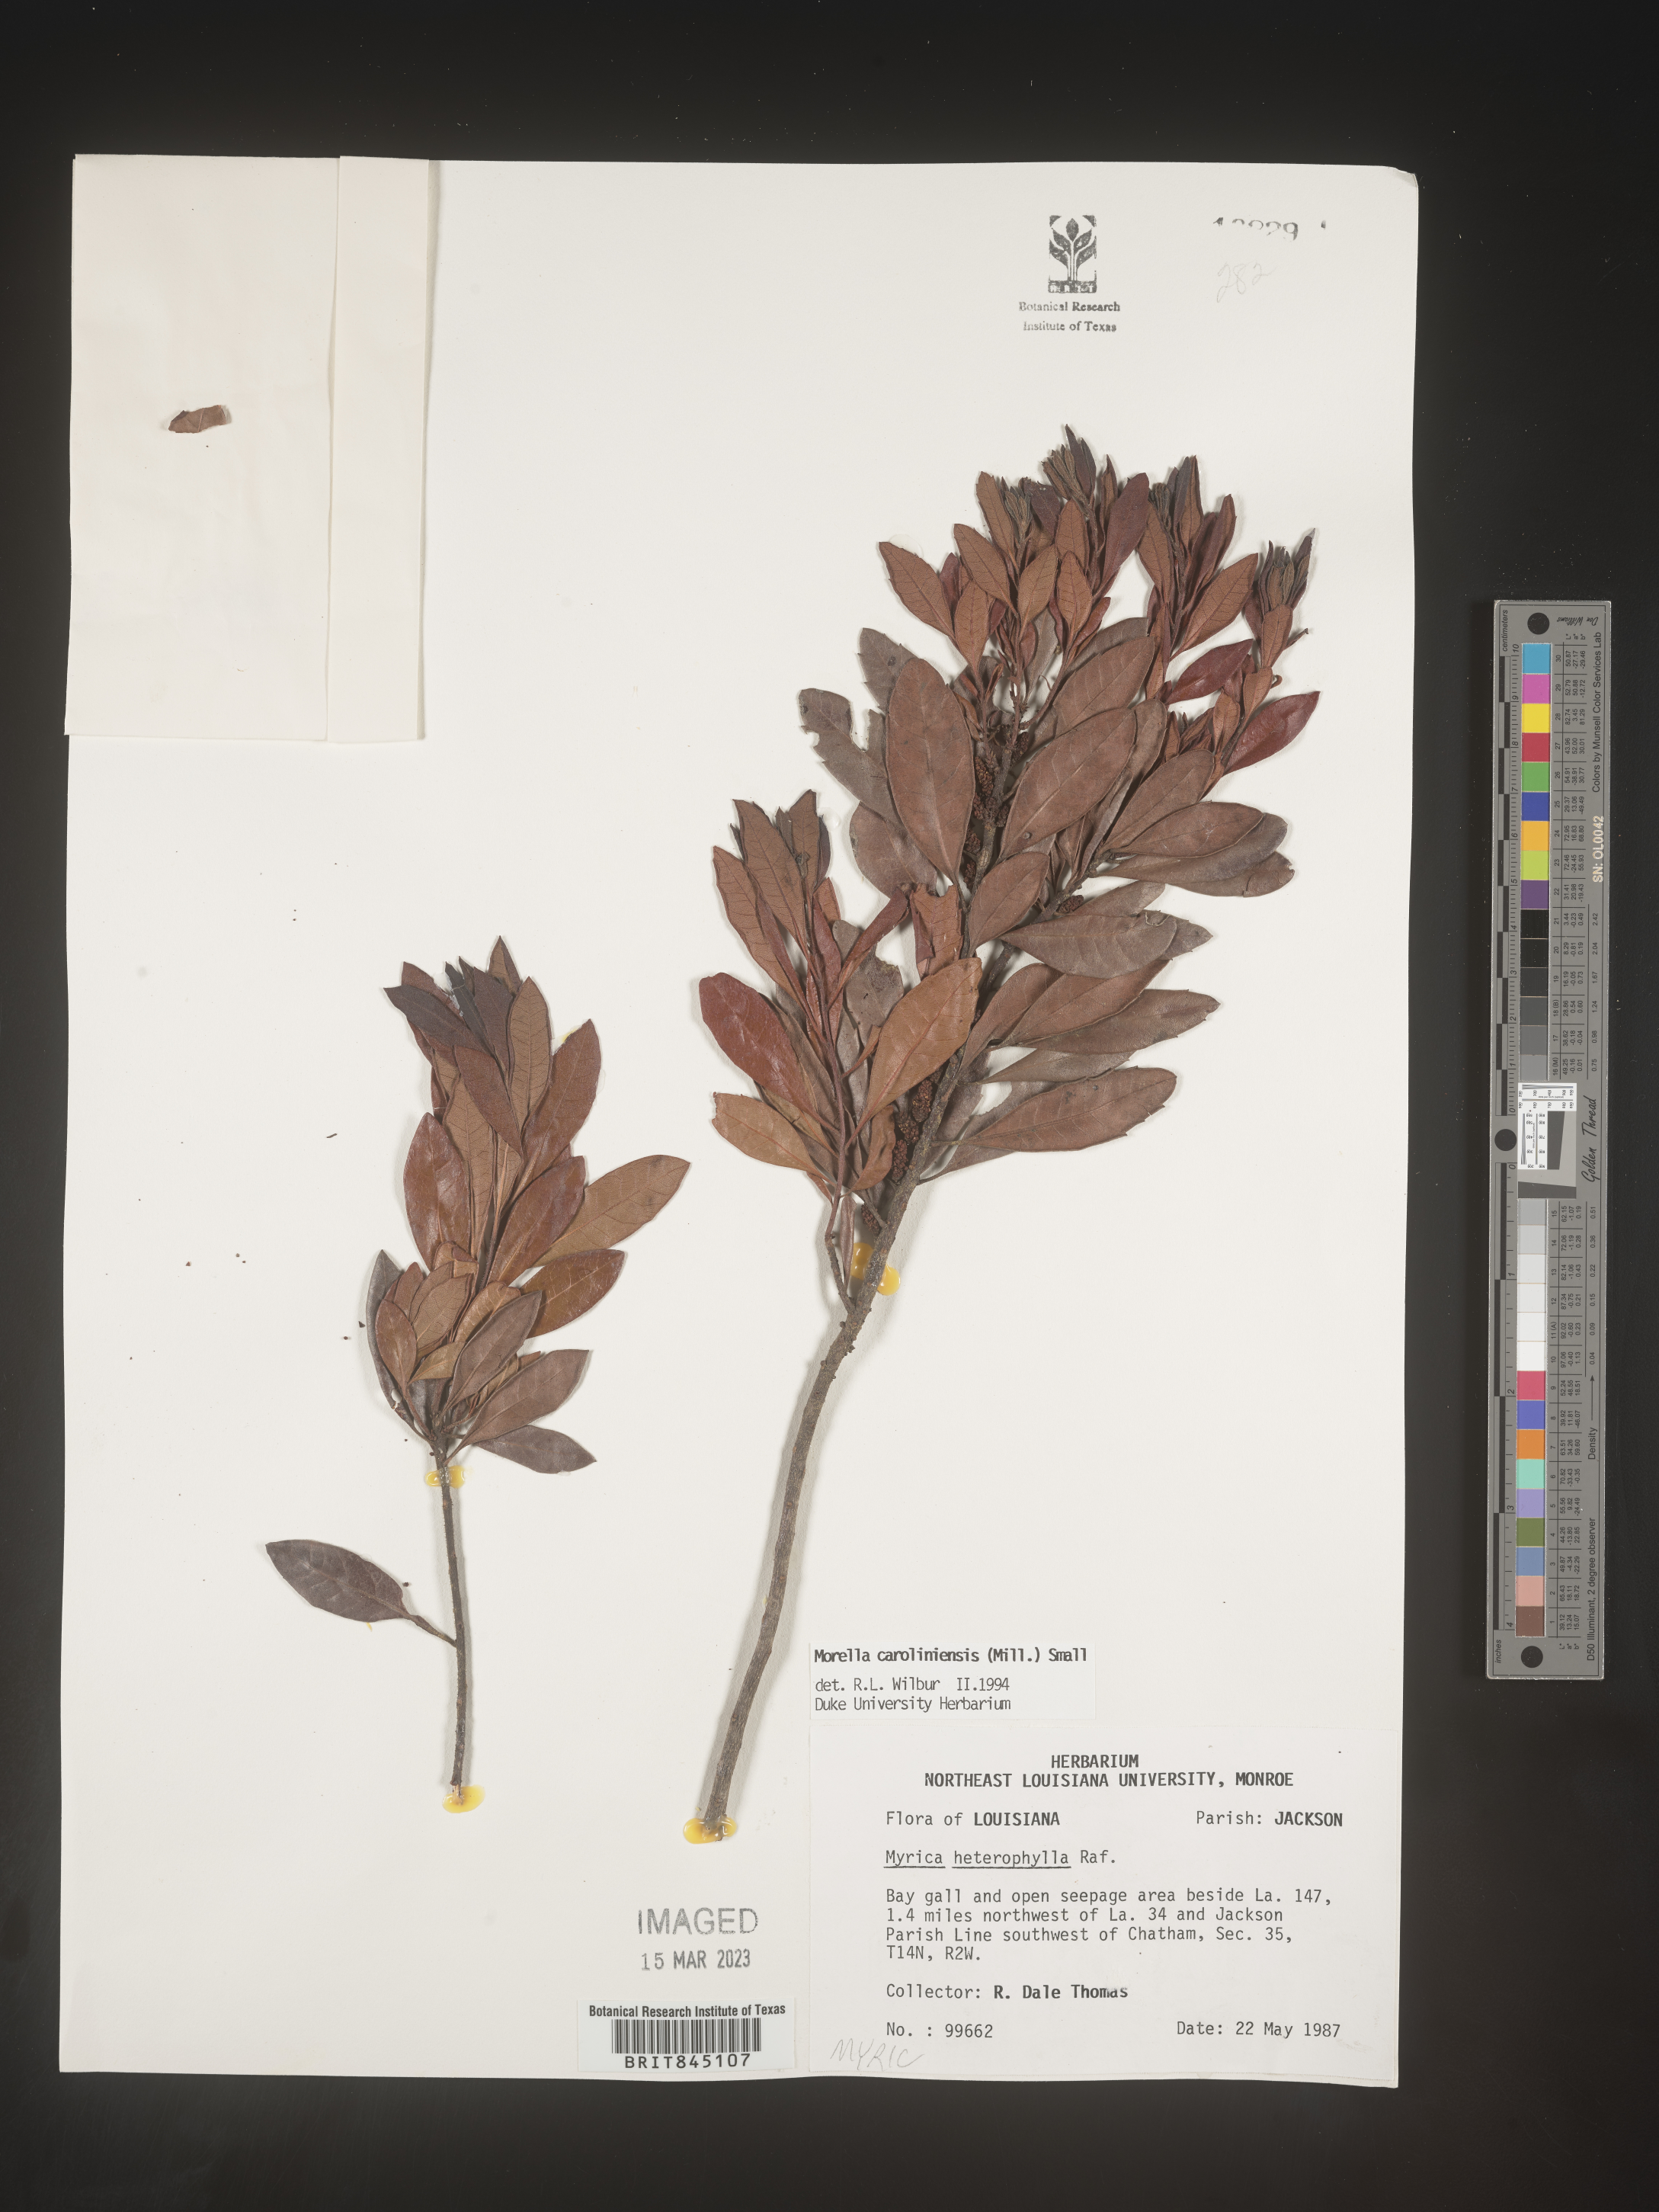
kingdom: Plantae
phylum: Tracheophyta
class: Magnoliopsida
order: Fagales
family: Myricaceae
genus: Morella
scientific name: Morella caroliniensis
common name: Evergreen bayberry
